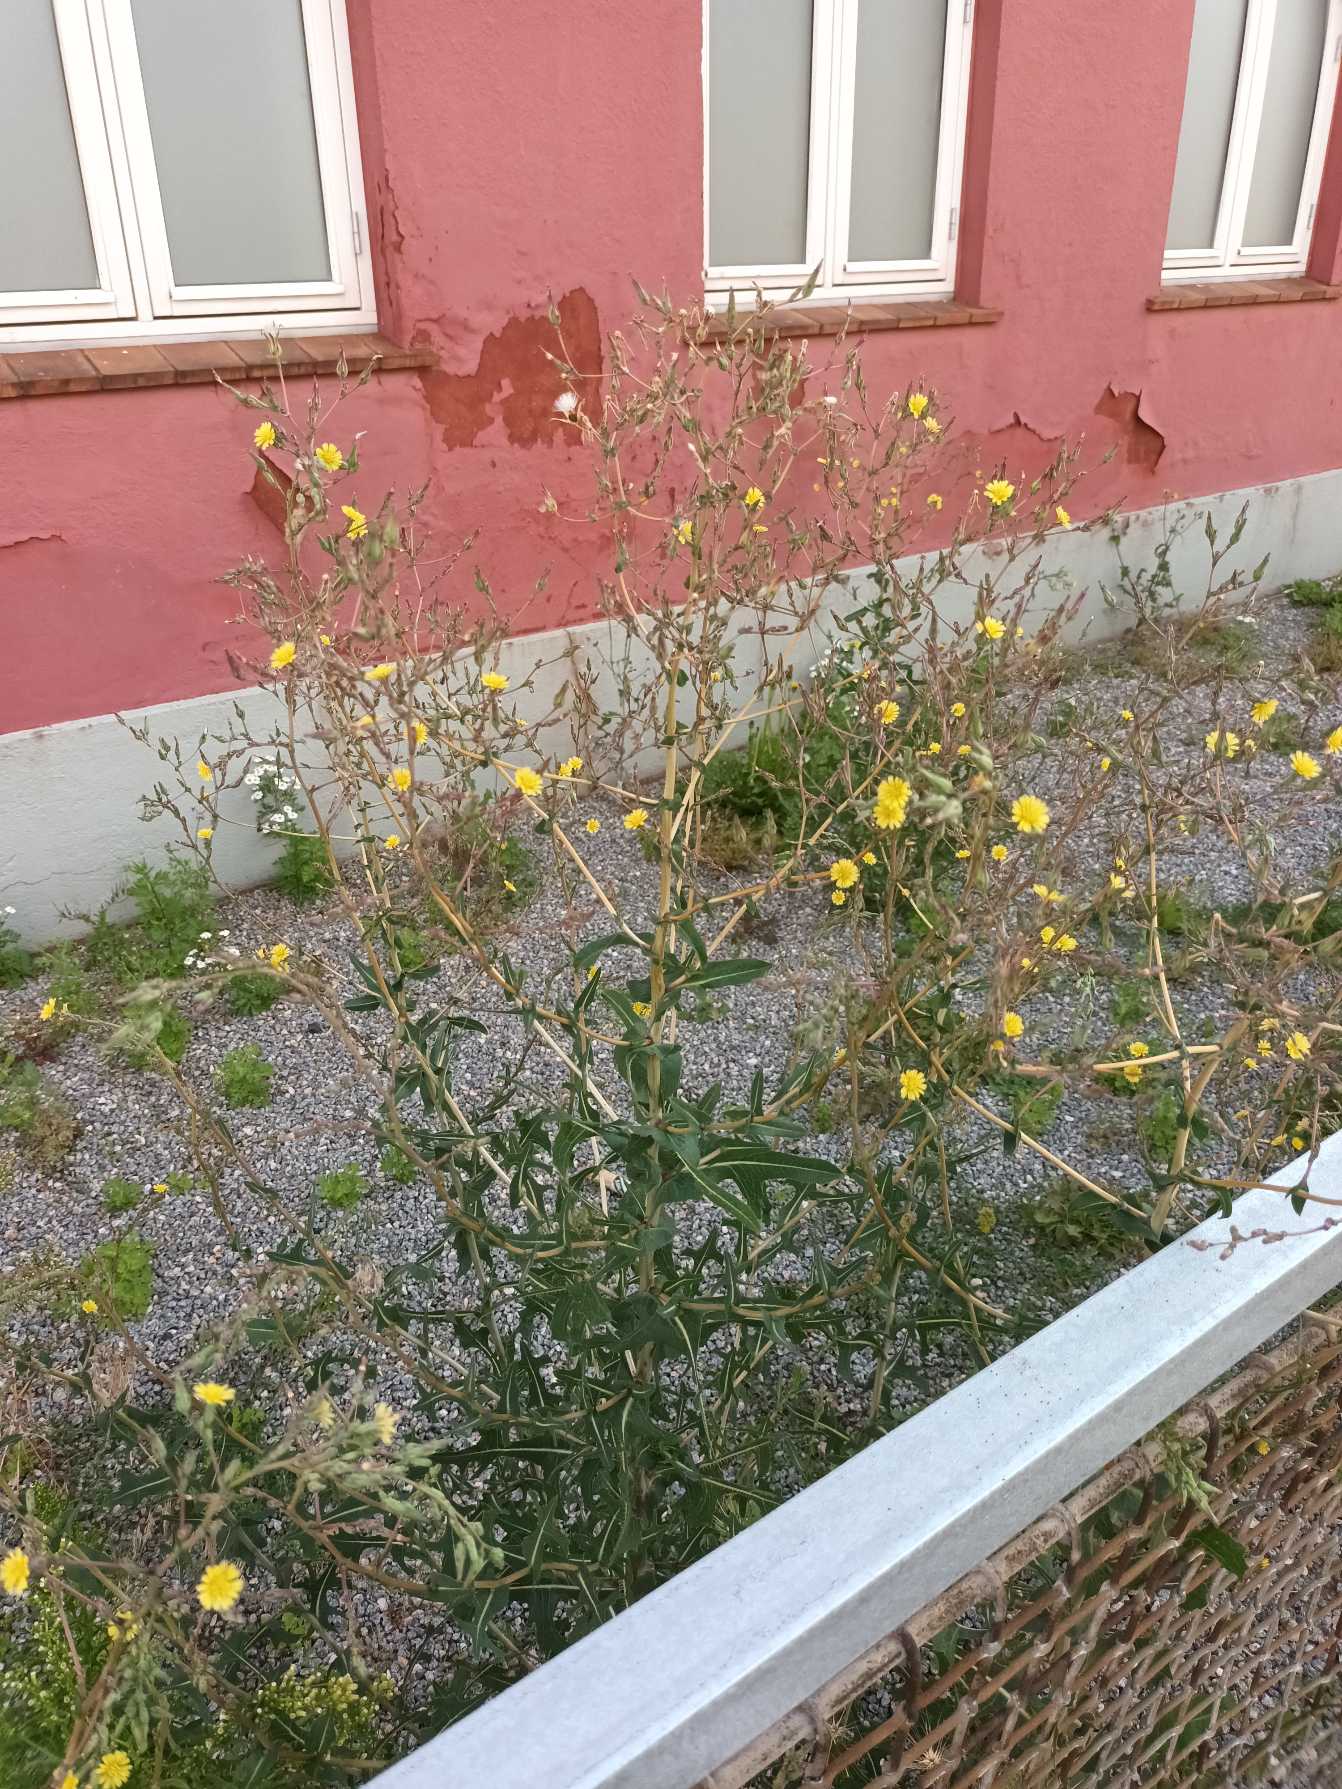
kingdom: Plantae
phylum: Tracheophyta
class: Magnoliopsida
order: Asterales
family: Asteraceae
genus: Lactuca
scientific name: Lactuca serriola
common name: Tornet salat
